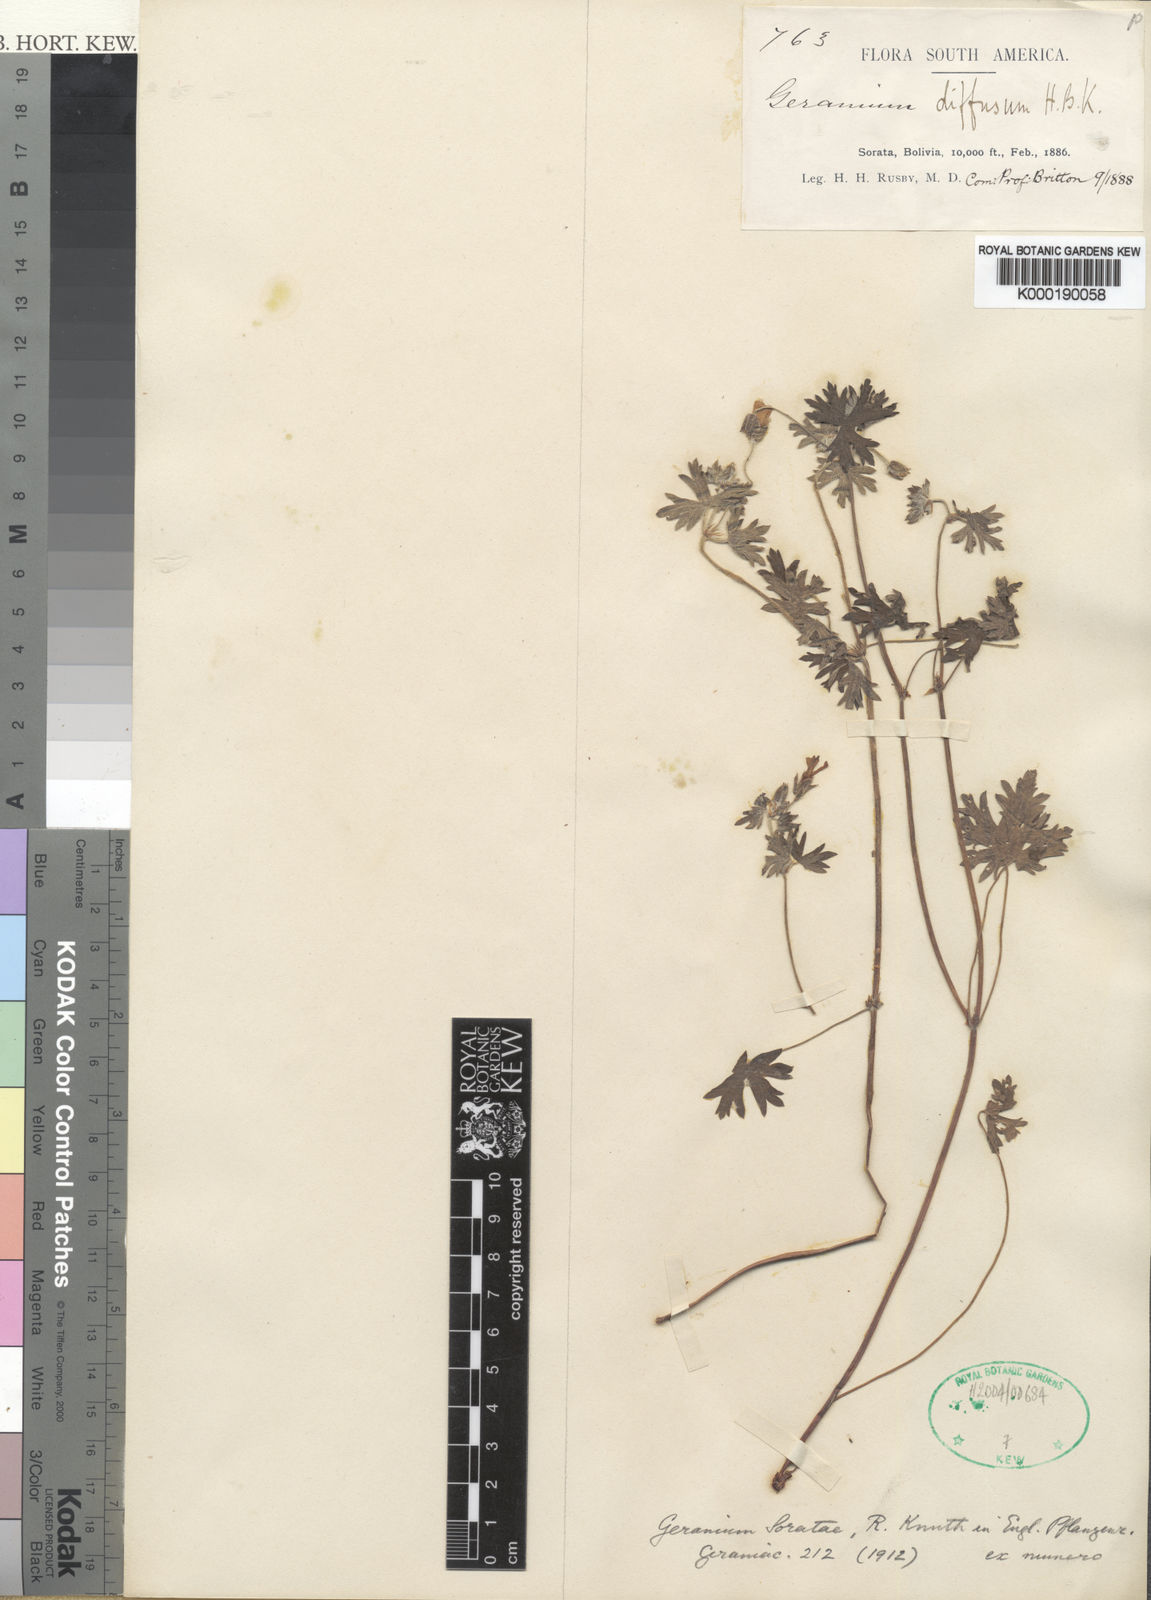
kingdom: Plantae
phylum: Tracheophyta
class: Magnoliopsida
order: Geraniales
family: Geraniaceae
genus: Geranium
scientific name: Geranium soratae
